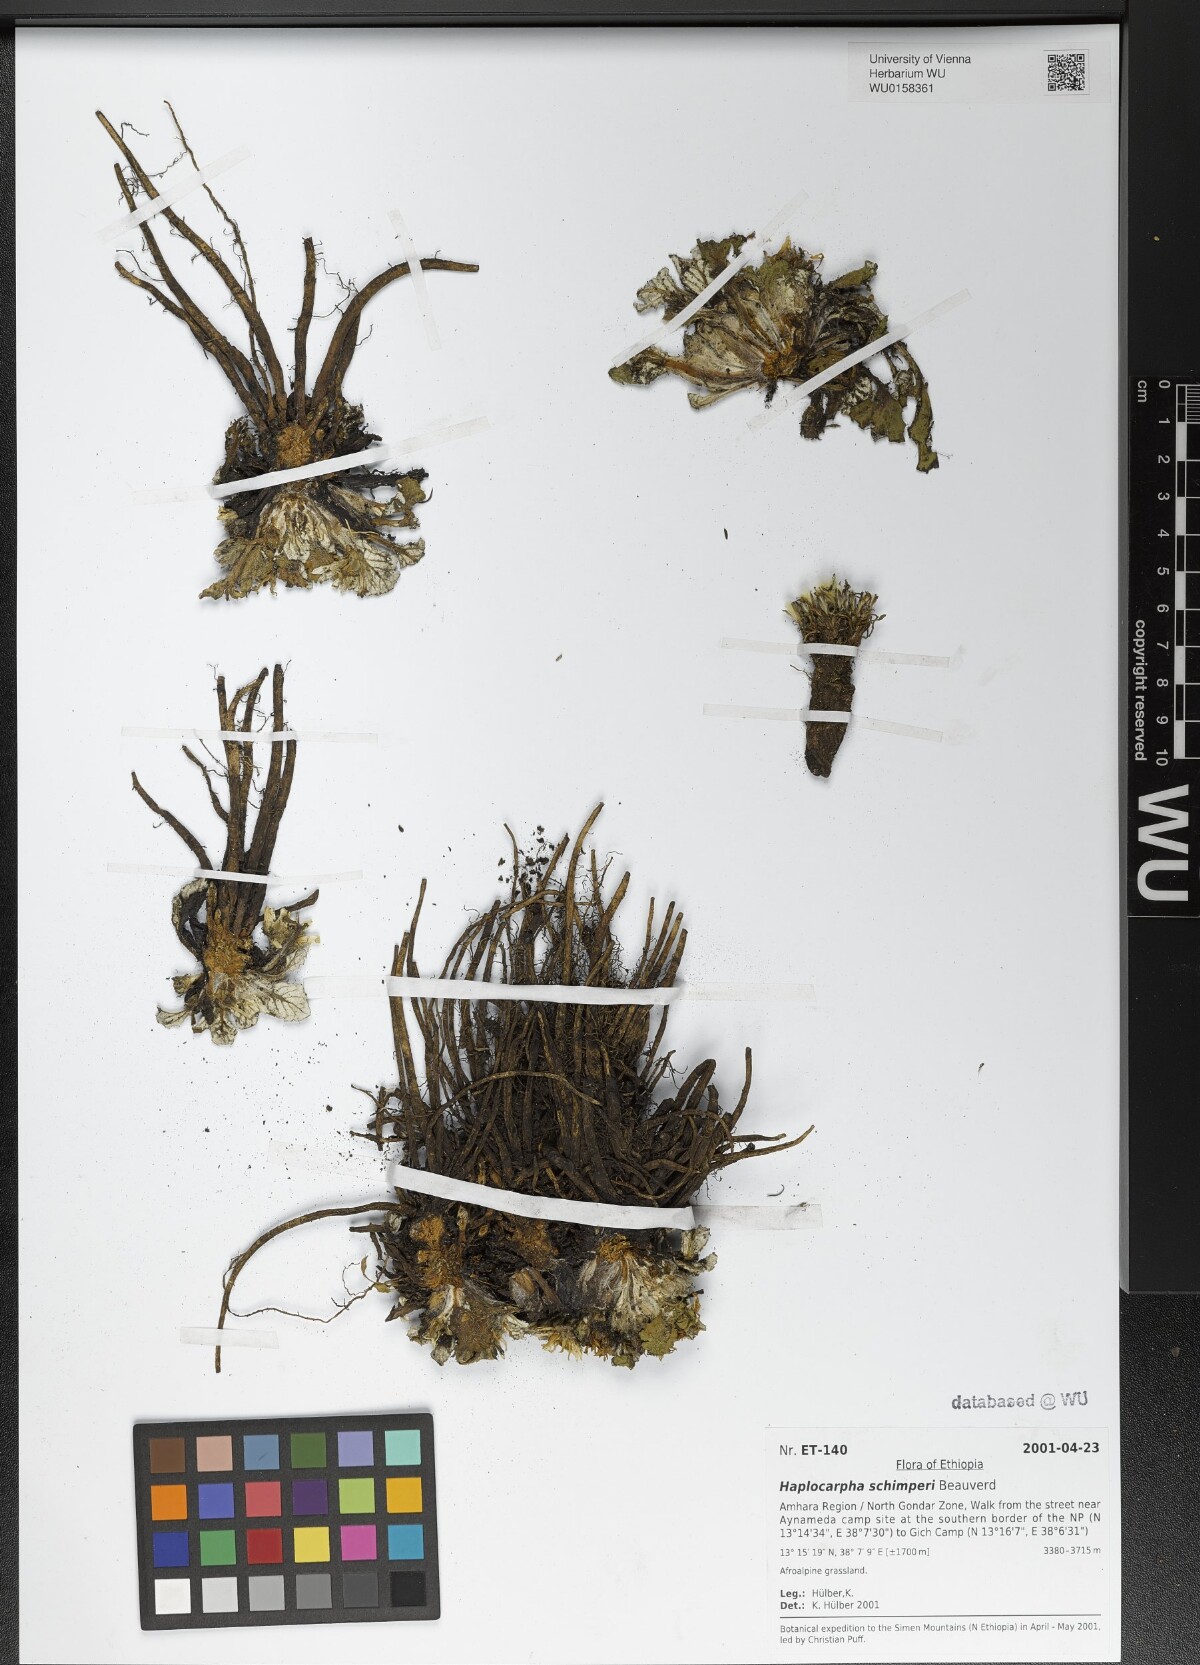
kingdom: Plantae
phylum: Tracheophyta
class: Magnoliopsida
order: Asterales
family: Asteraceae
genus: Haplocarpha
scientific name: Haplocarpha schimperi
